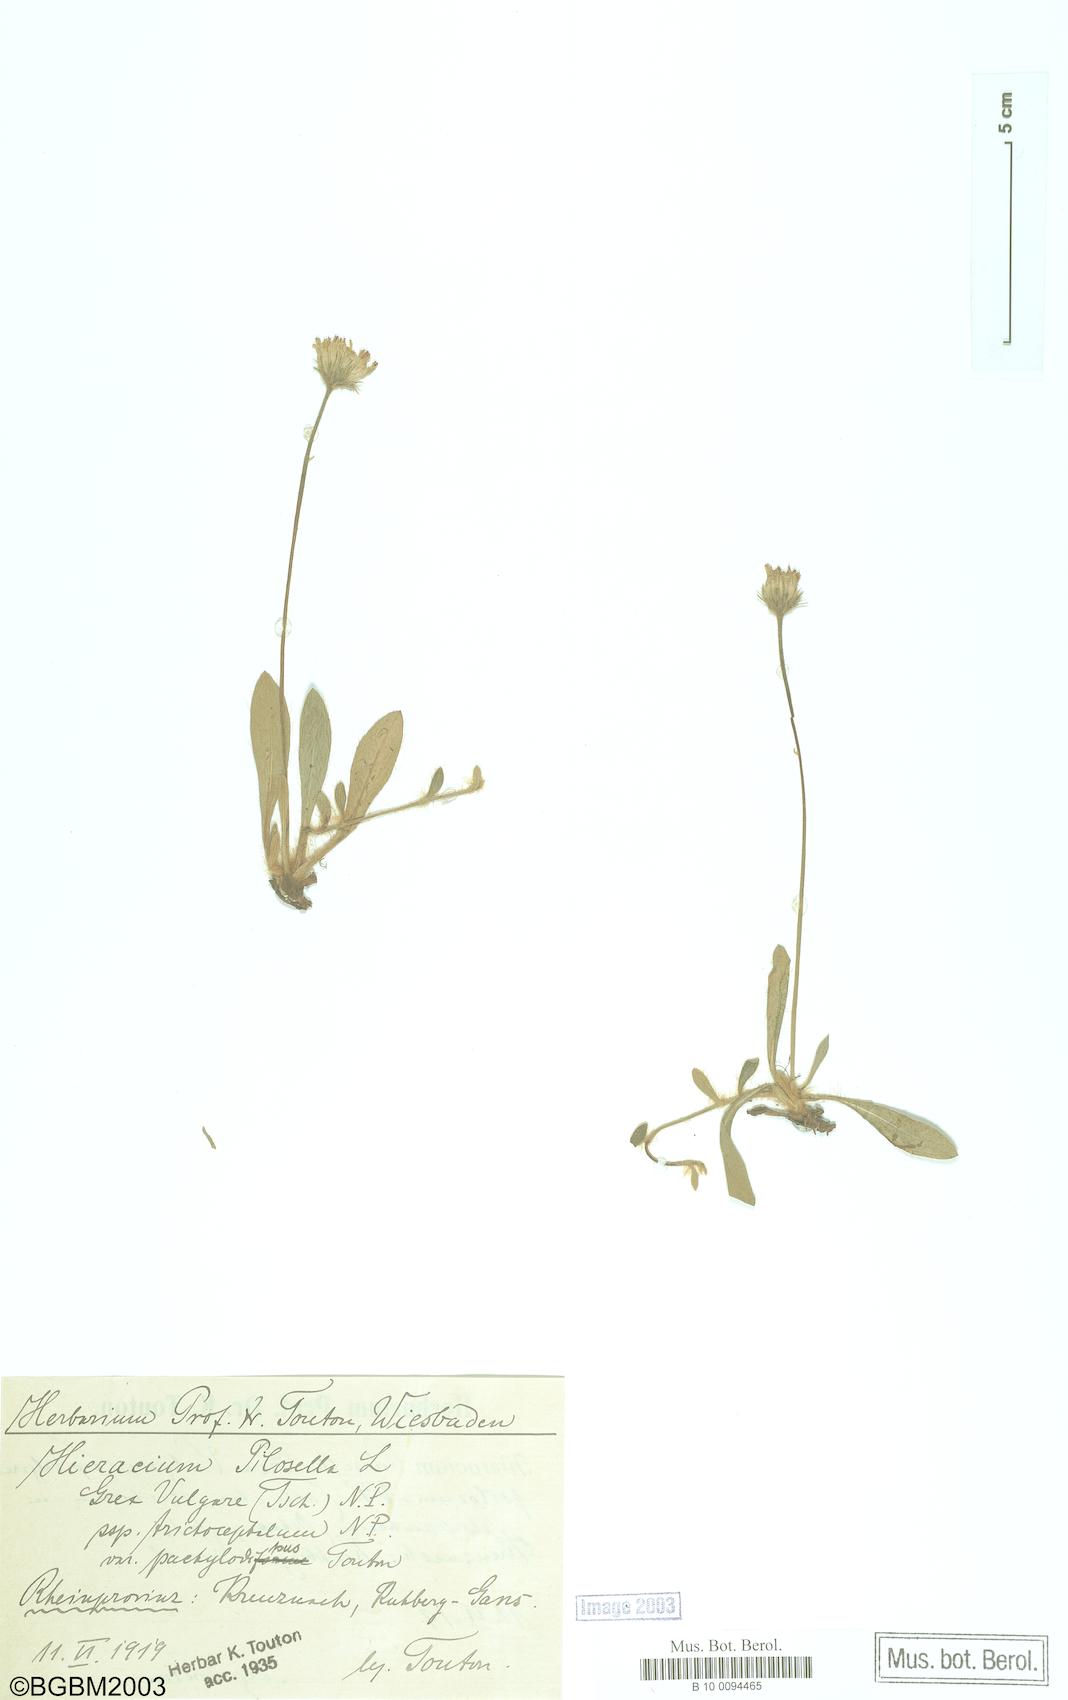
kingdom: Plantae
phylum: Tracheophyta
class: Magnoliopsida
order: Asterales
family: Asteraceae
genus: Pilosella
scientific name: Pilosella officinarum
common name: Mouse-ear hawkweed
